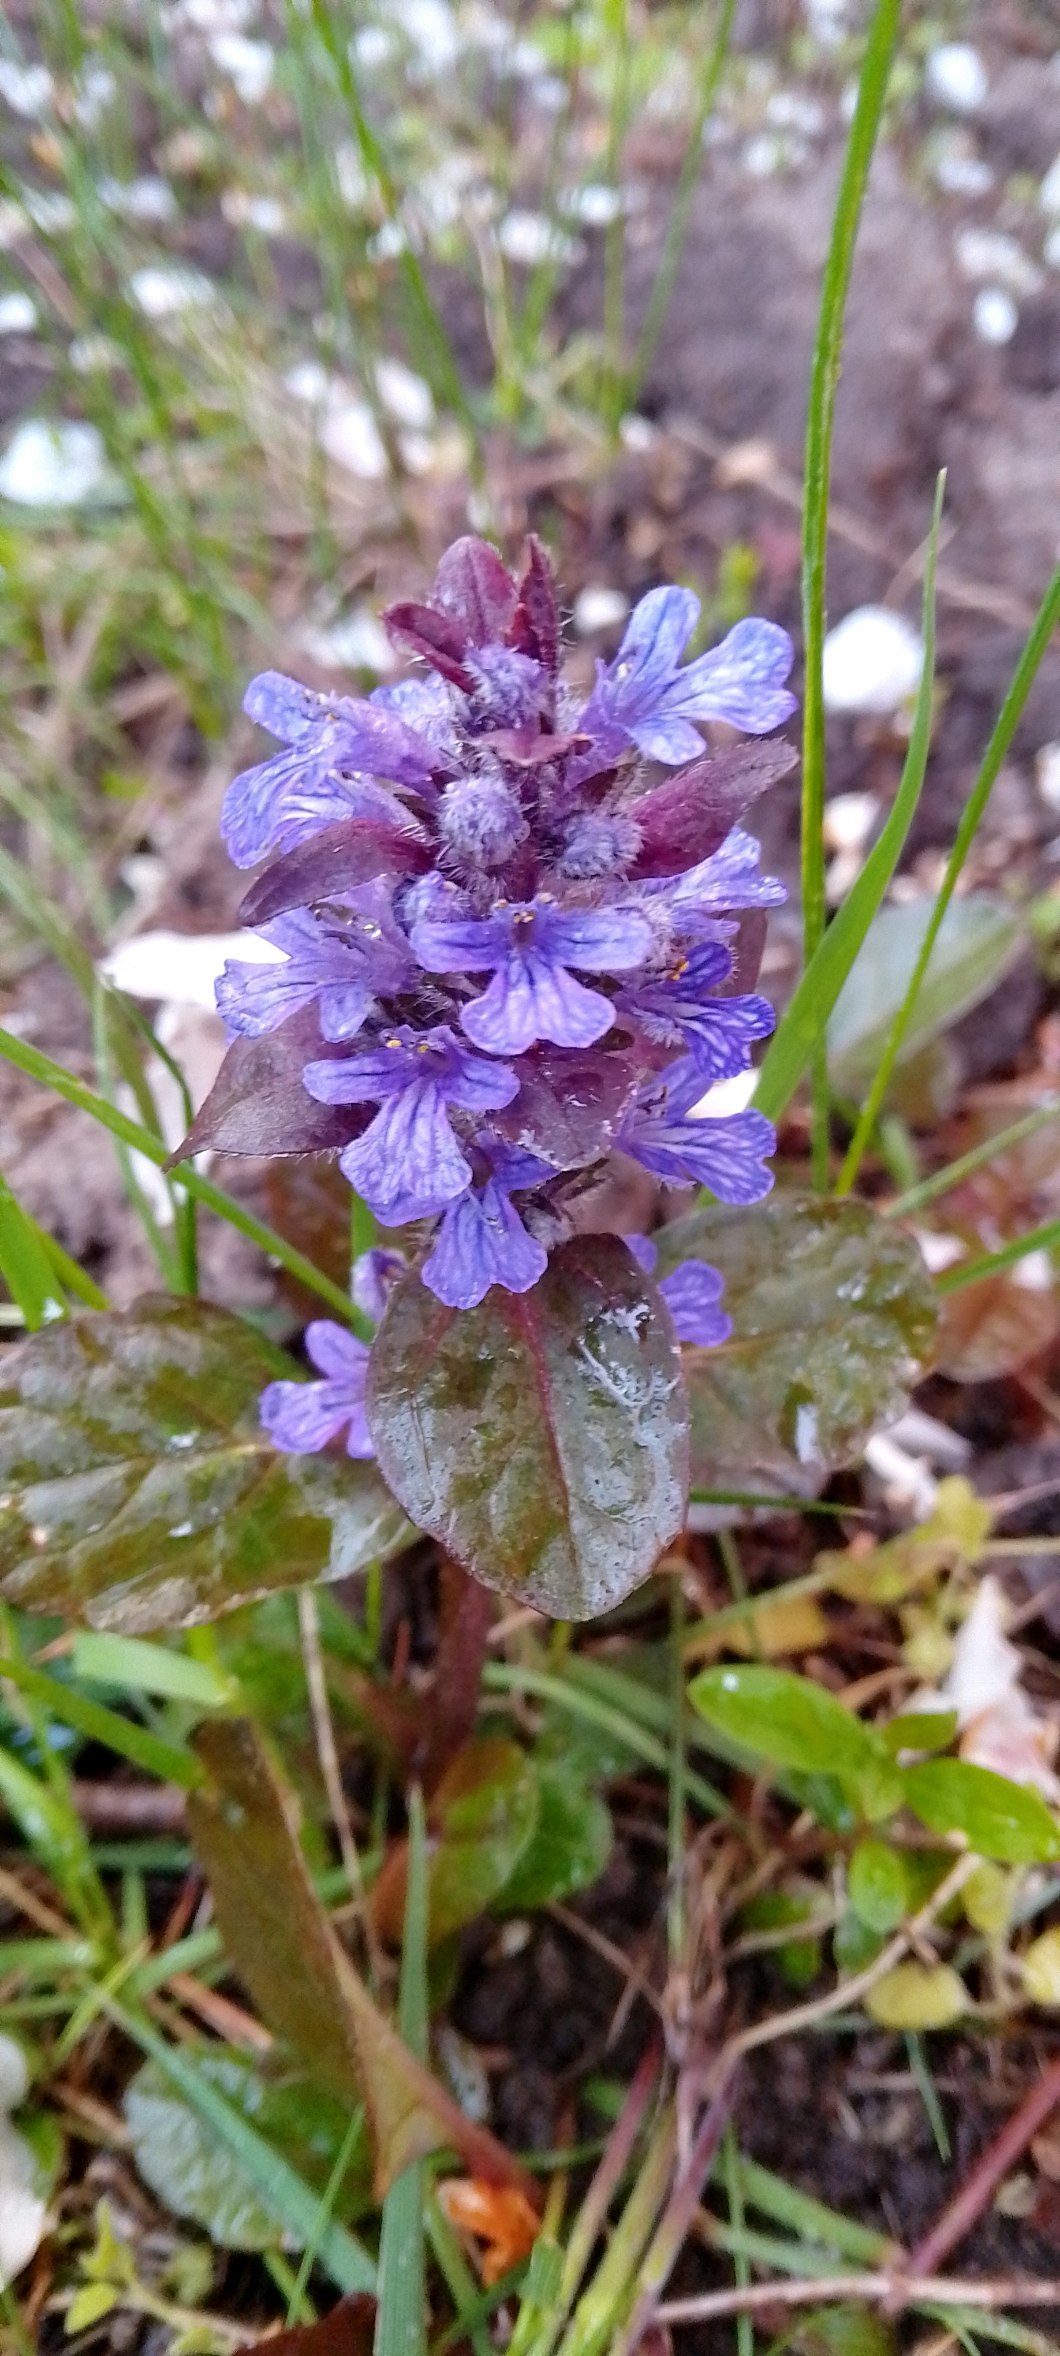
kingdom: Plantae
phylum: Tracheophyta
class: Magnoliopsida
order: Lamiales
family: Lamiaceae
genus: Ajuga
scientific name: Ajuga reptans
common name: Krybende læbeløs
